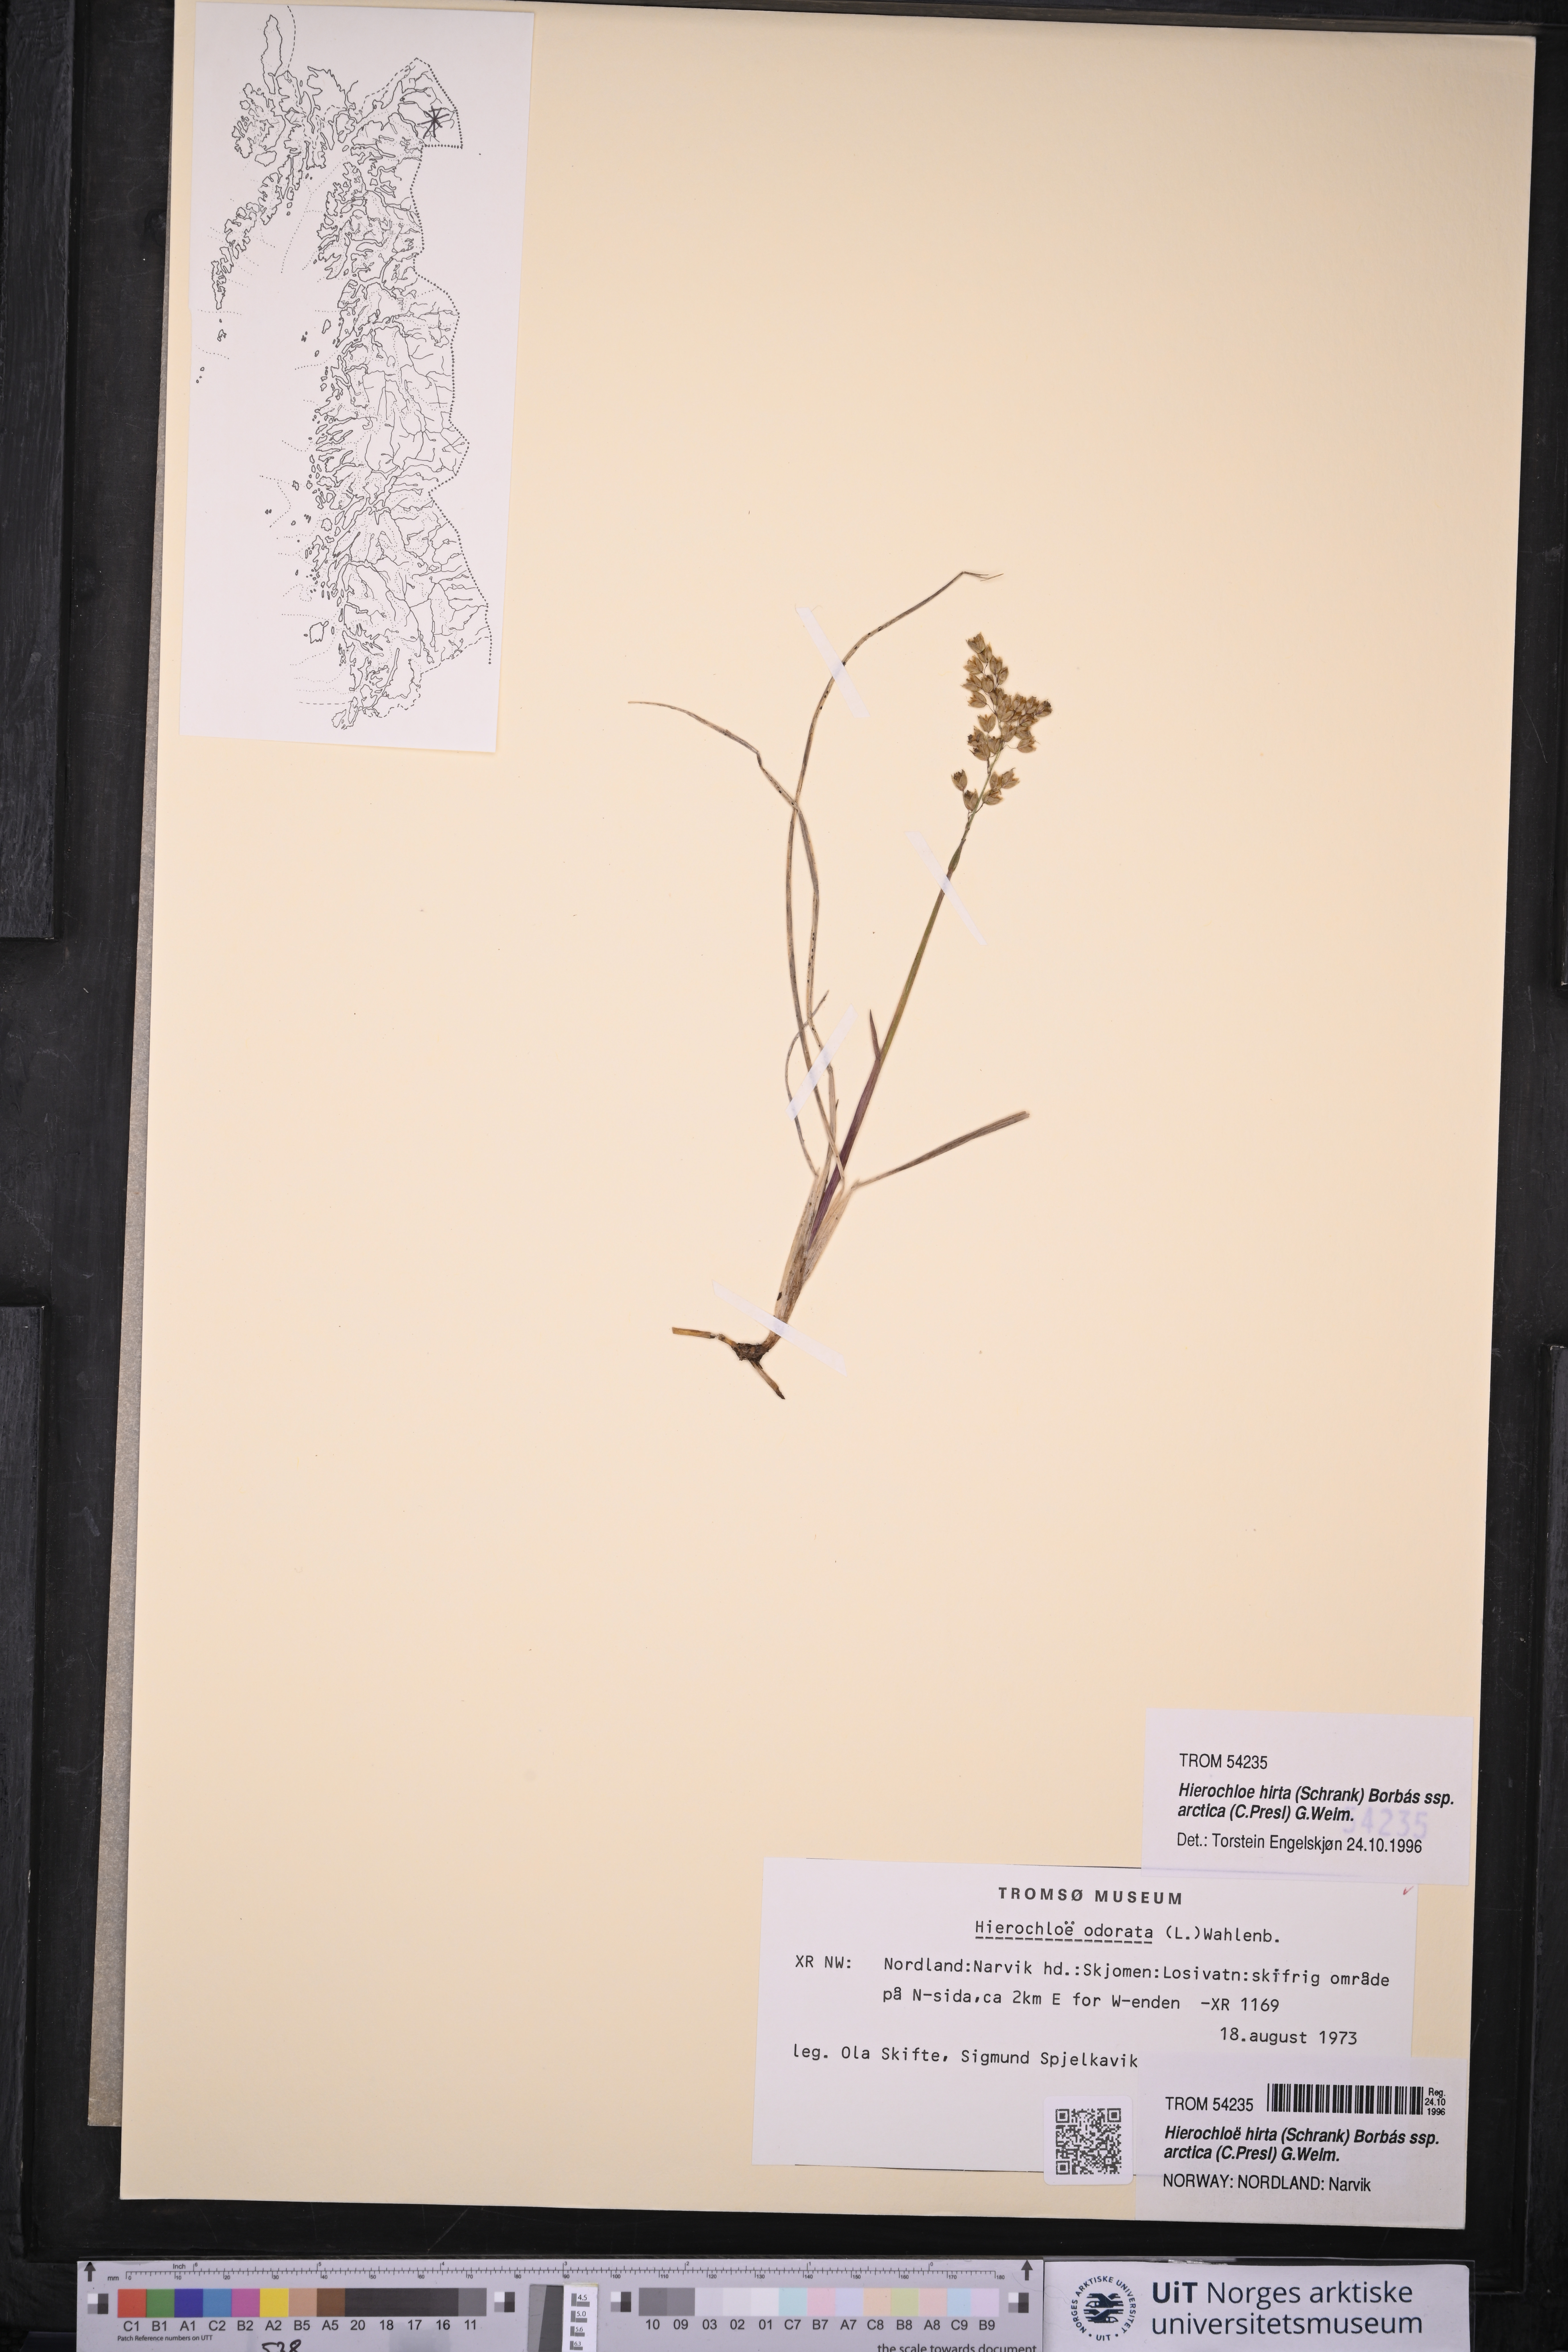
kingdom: Plantae
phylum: Tracheophyta
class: Liliopsida
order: Poales
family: Poaceae
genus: Anthoxanthum
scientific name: Anthoxanthum nitens
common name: Holy grass
